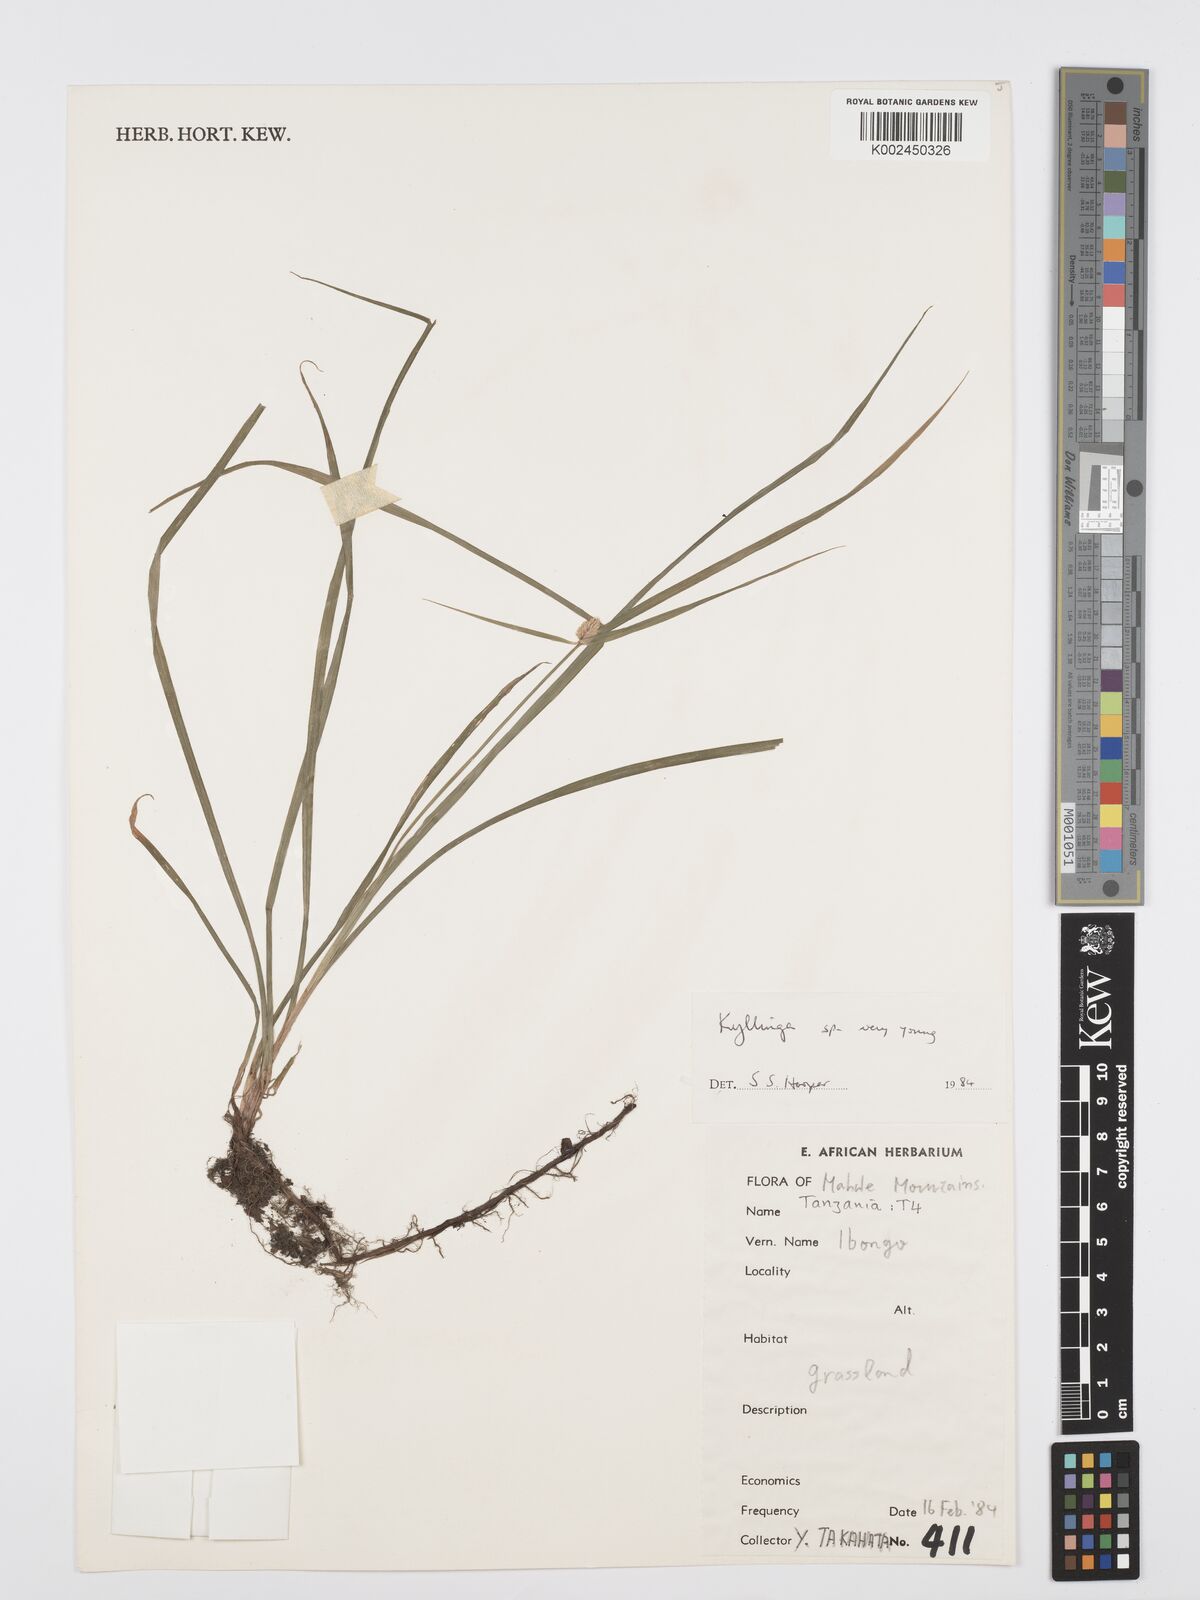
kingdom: Plantae
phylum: Tracheophyta
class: Liliopsida
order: Poales
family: Cyperaceae
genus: Cyperus
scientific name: Cyperus
